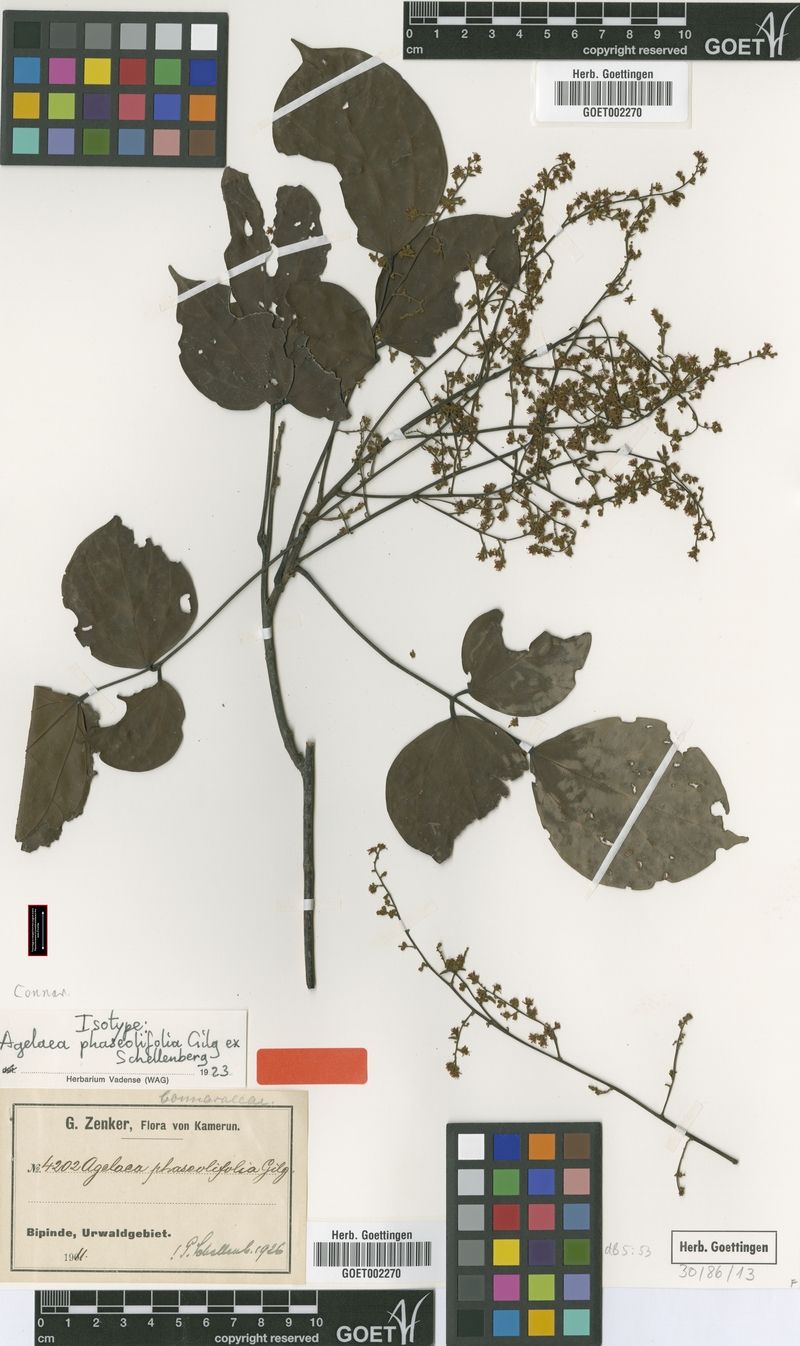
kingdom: Plantae
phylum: Tracheophyta
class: Magnoliopsida
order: Oxalidales
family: Connaraceae
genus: Agelaea
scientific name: Agelaea pentagyna
